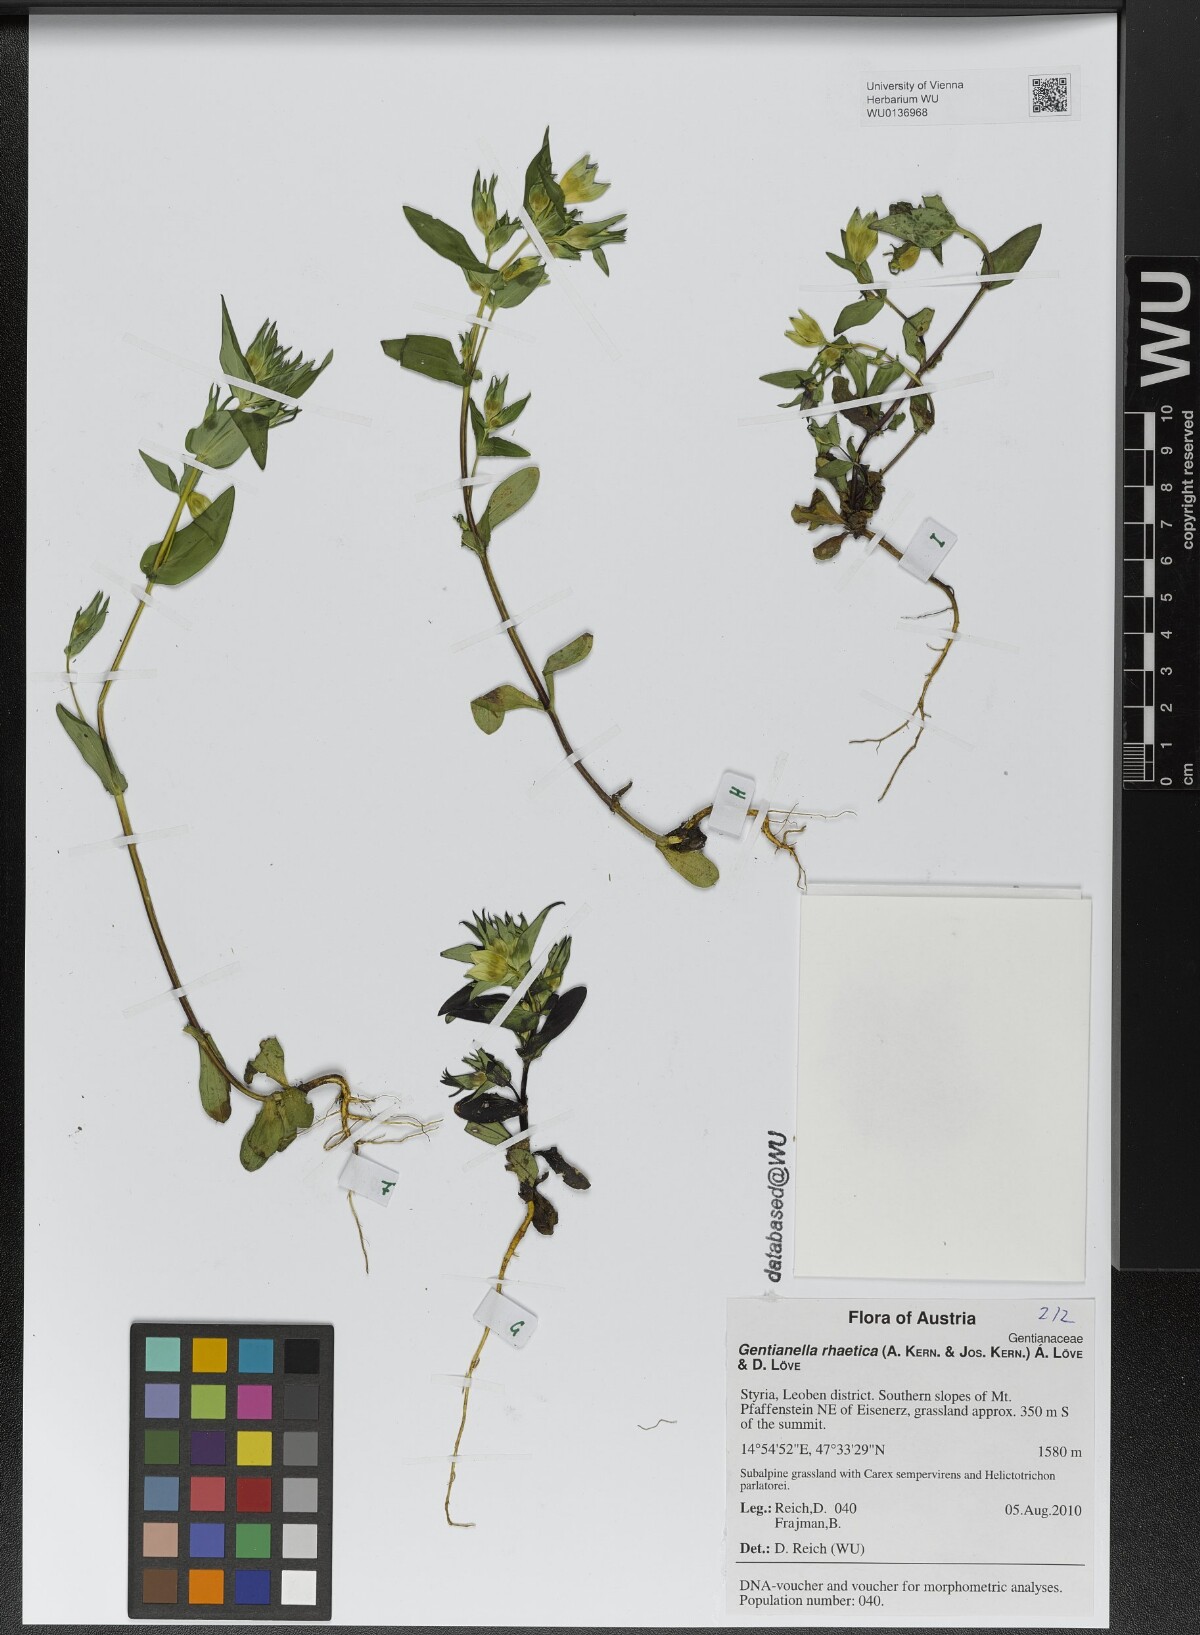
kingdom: Plantae
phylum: Tracheophyta
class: Magnoliopsida
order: Gentianales
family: Gentianaceae
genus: Gentianella
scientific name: Gentianella rhaetica
